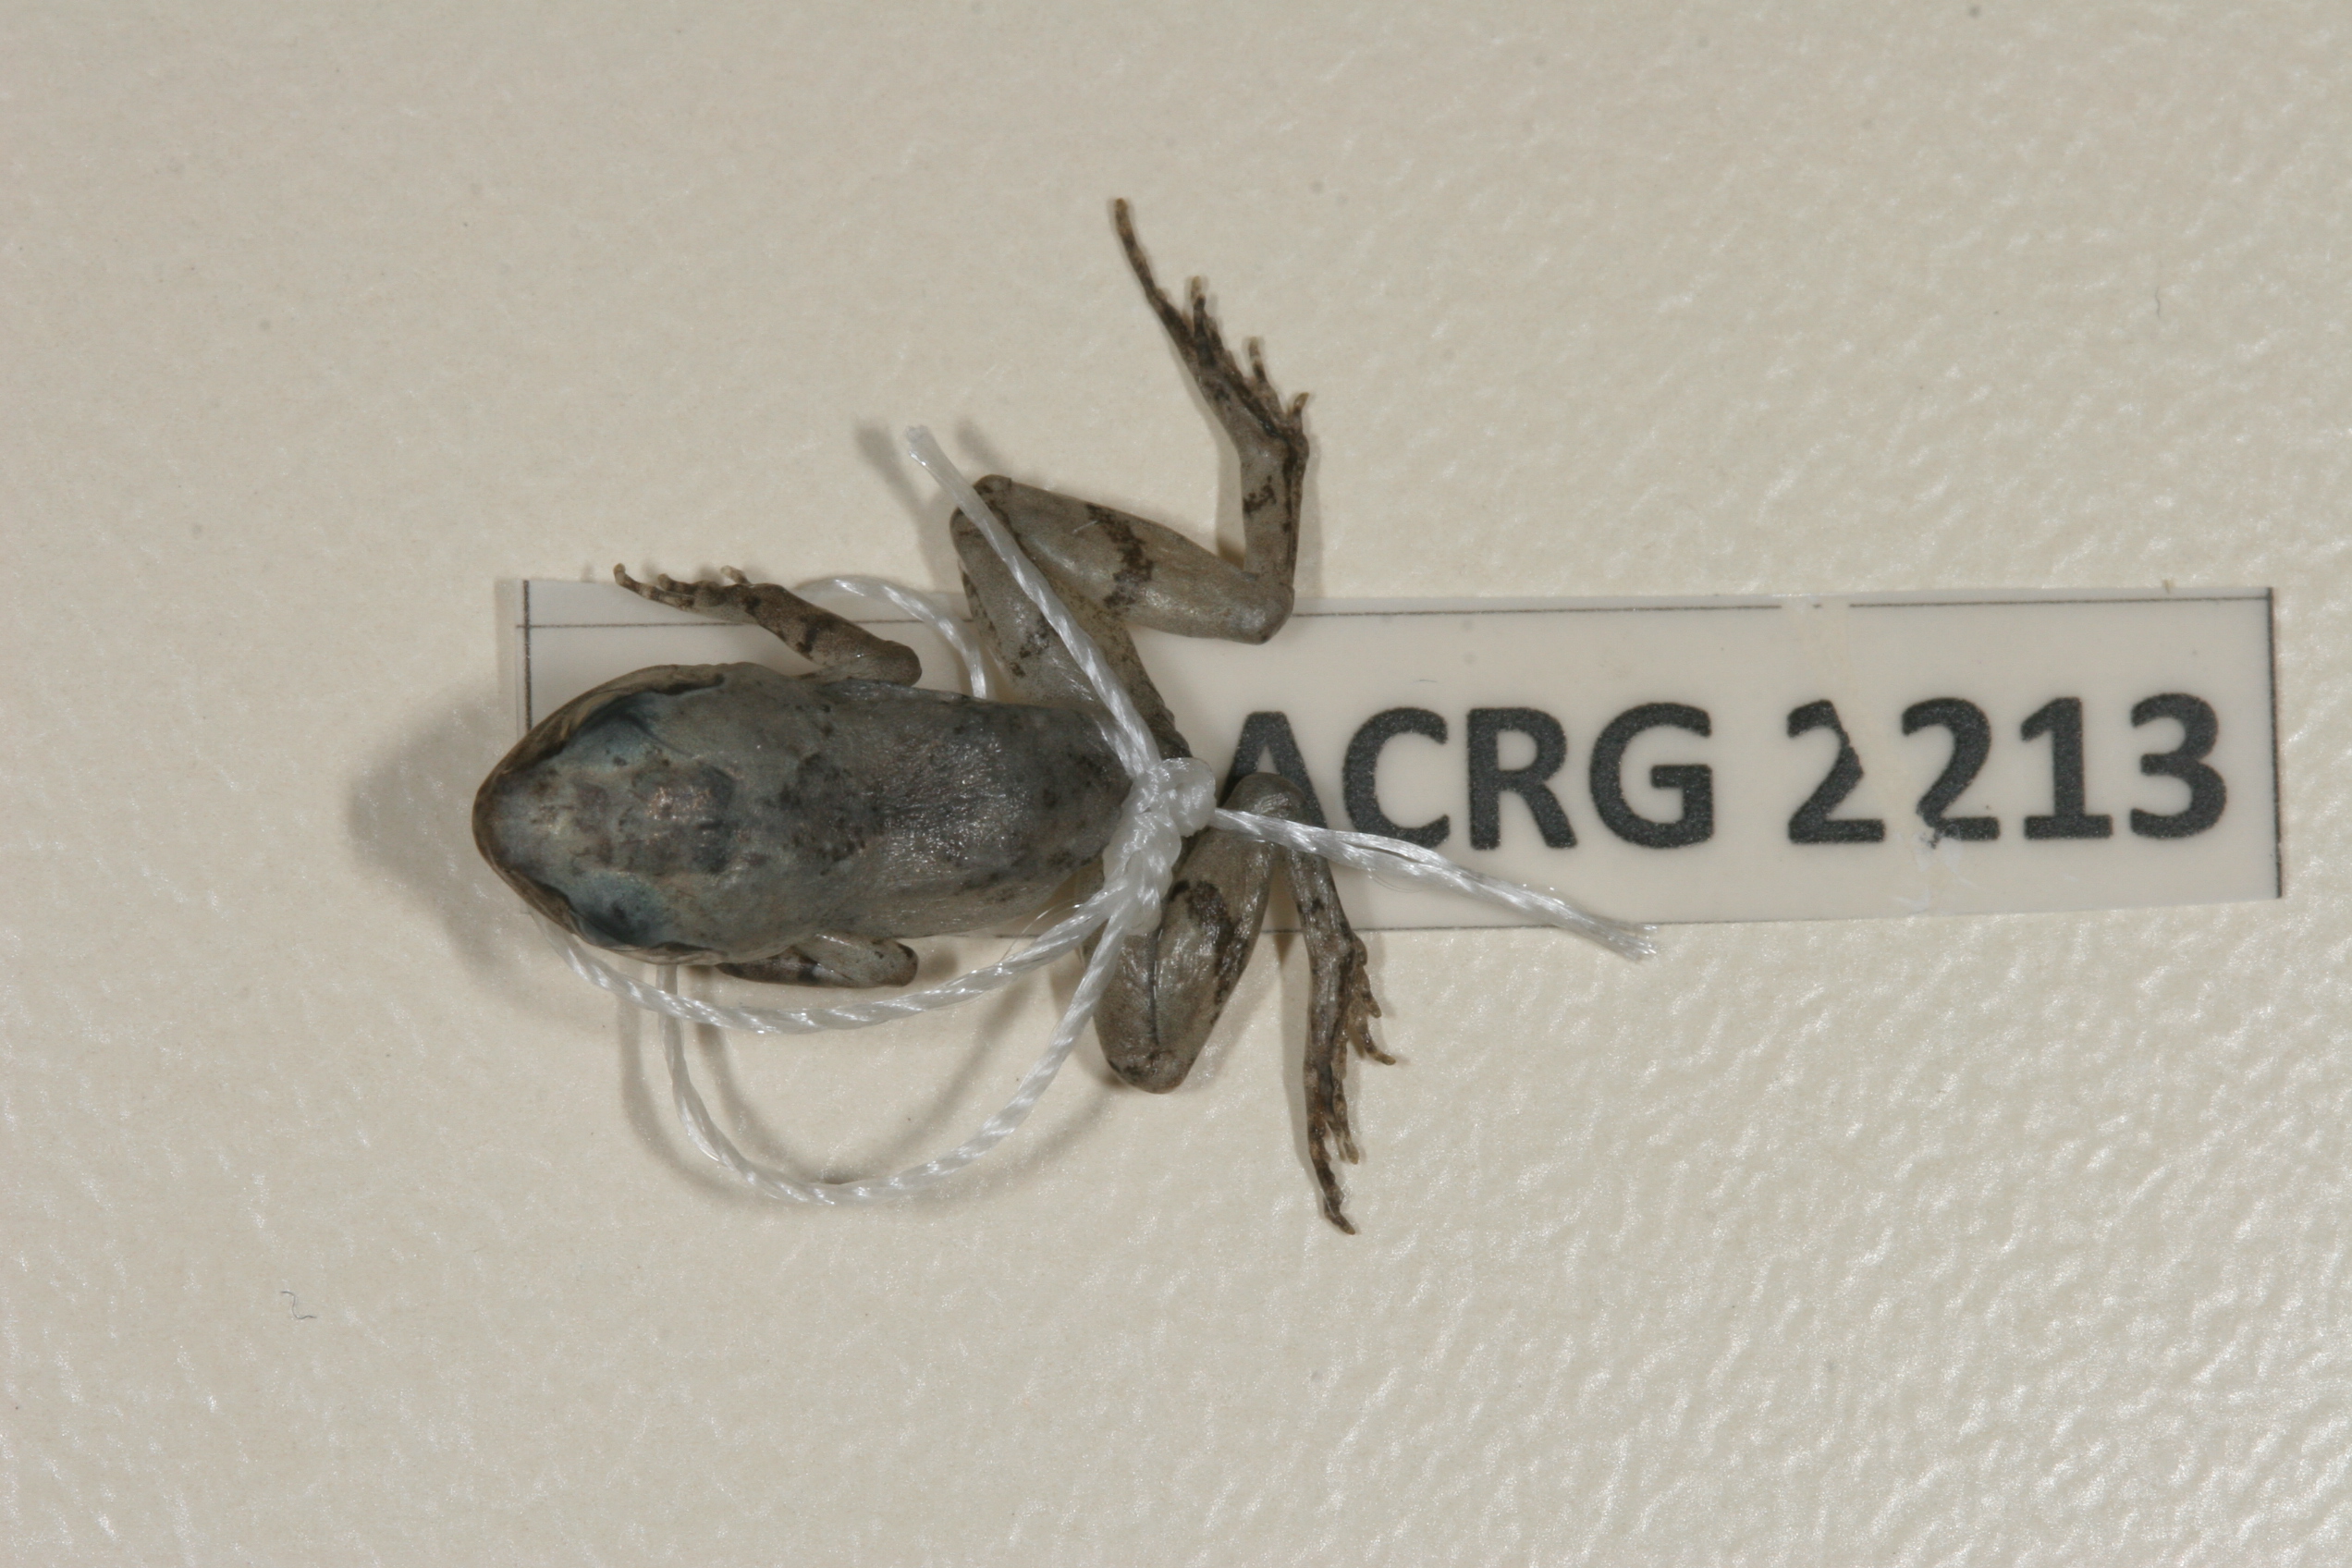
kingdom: Animalia
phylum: Chordata
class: Amphibia
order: Anura
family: Arthroleptidae
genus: Arthroleptis
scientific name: Arthroleptis wahlbergii
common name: Bush squeaker
